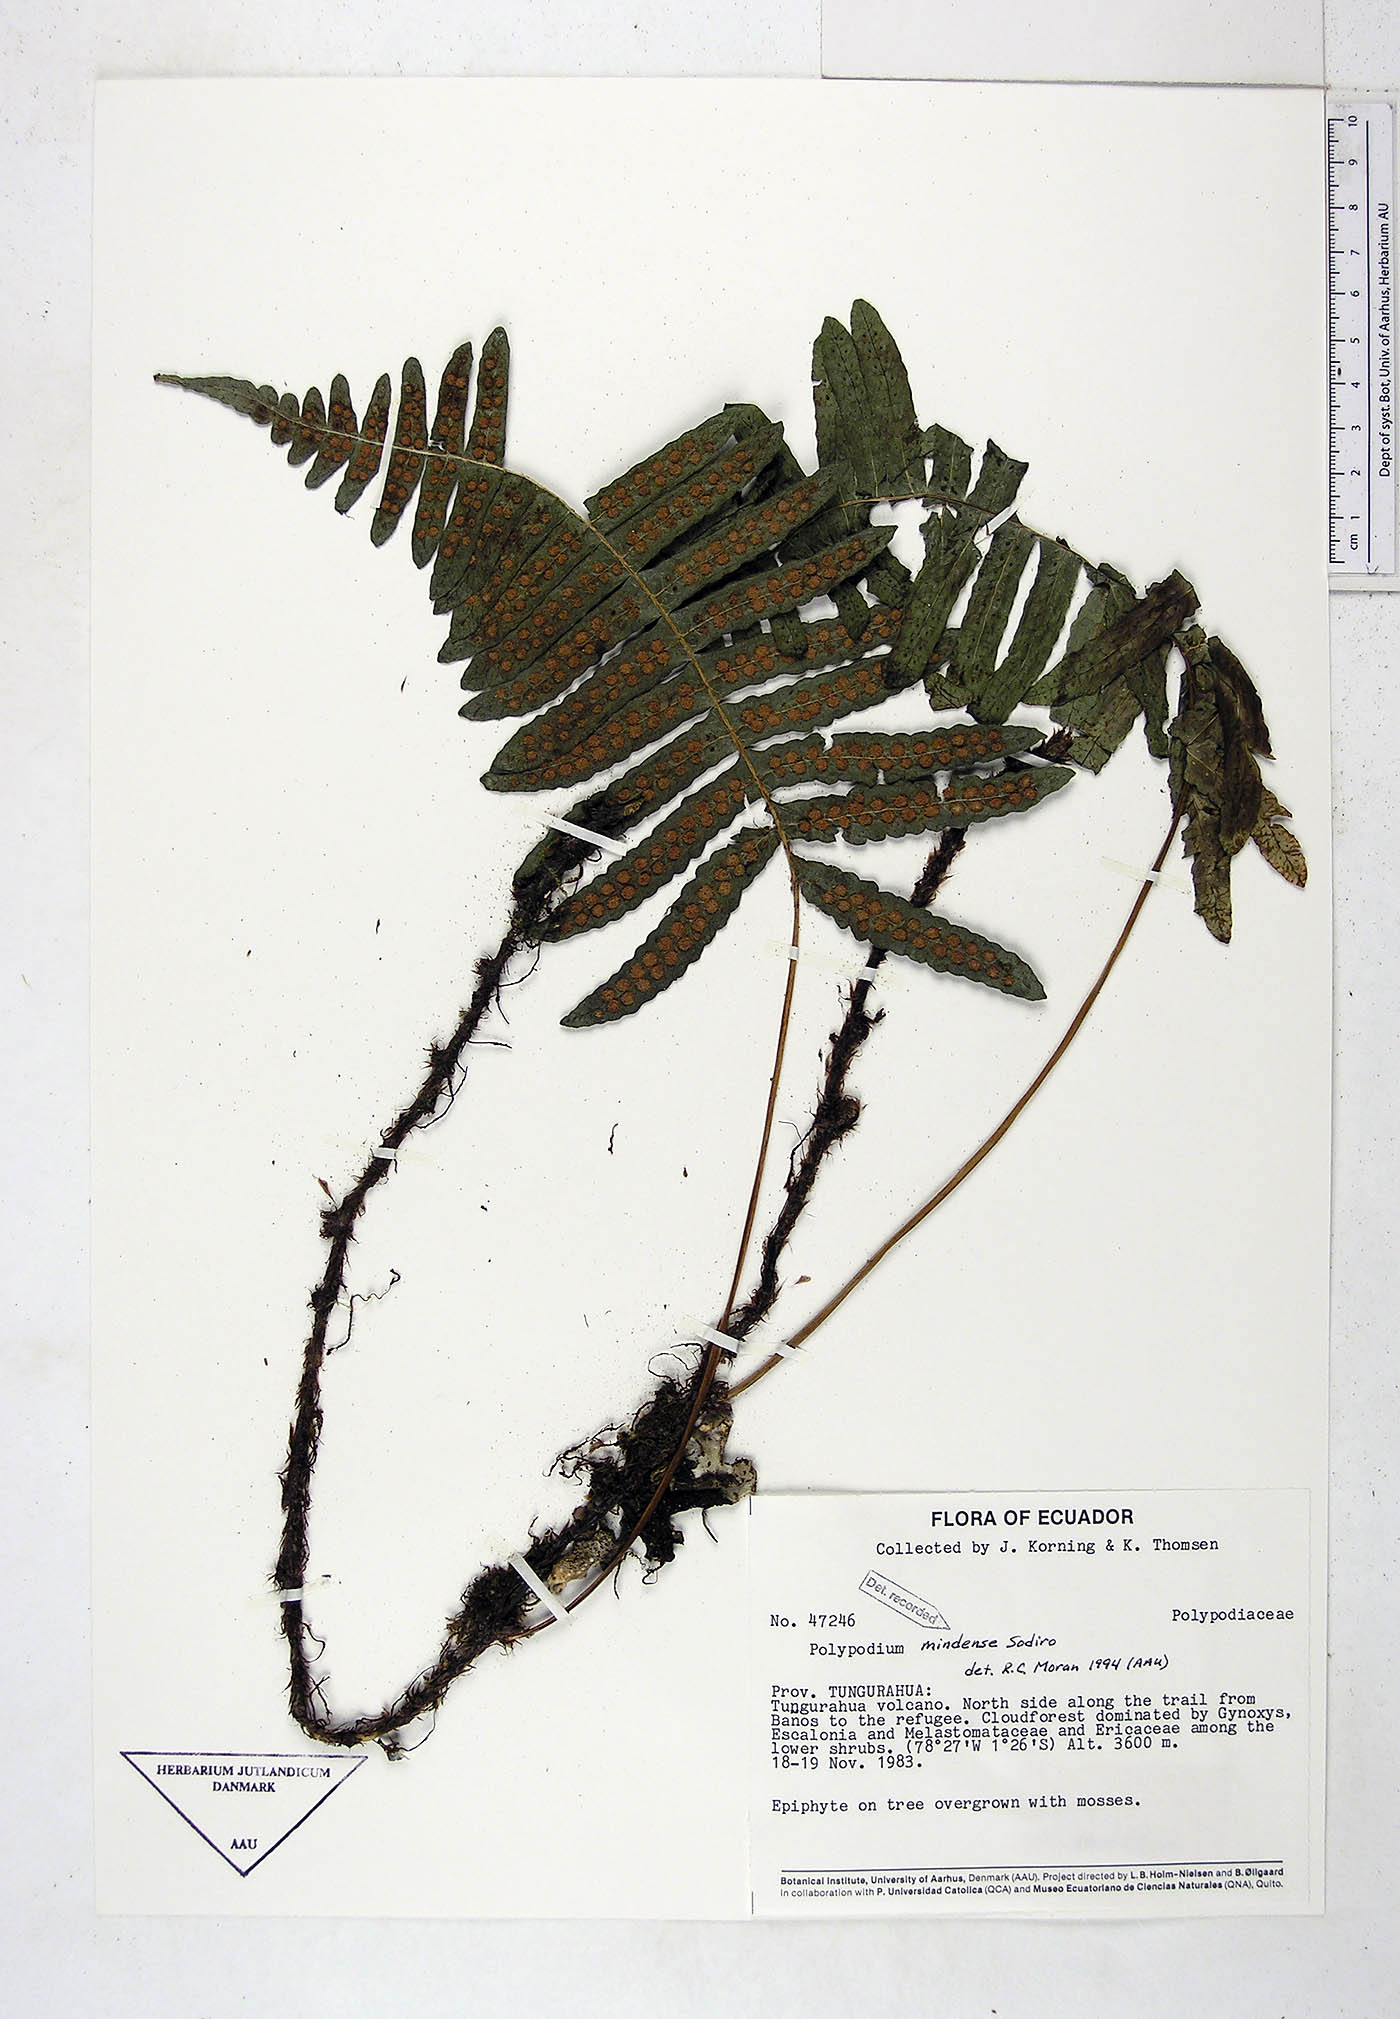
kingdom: Plantae
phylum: Tracheophyta
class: Polypodiopsida
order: Polypodiales
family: Polypodiaceae
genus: Serpocaulon
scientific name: Serpocaulon eleutherophlebium
